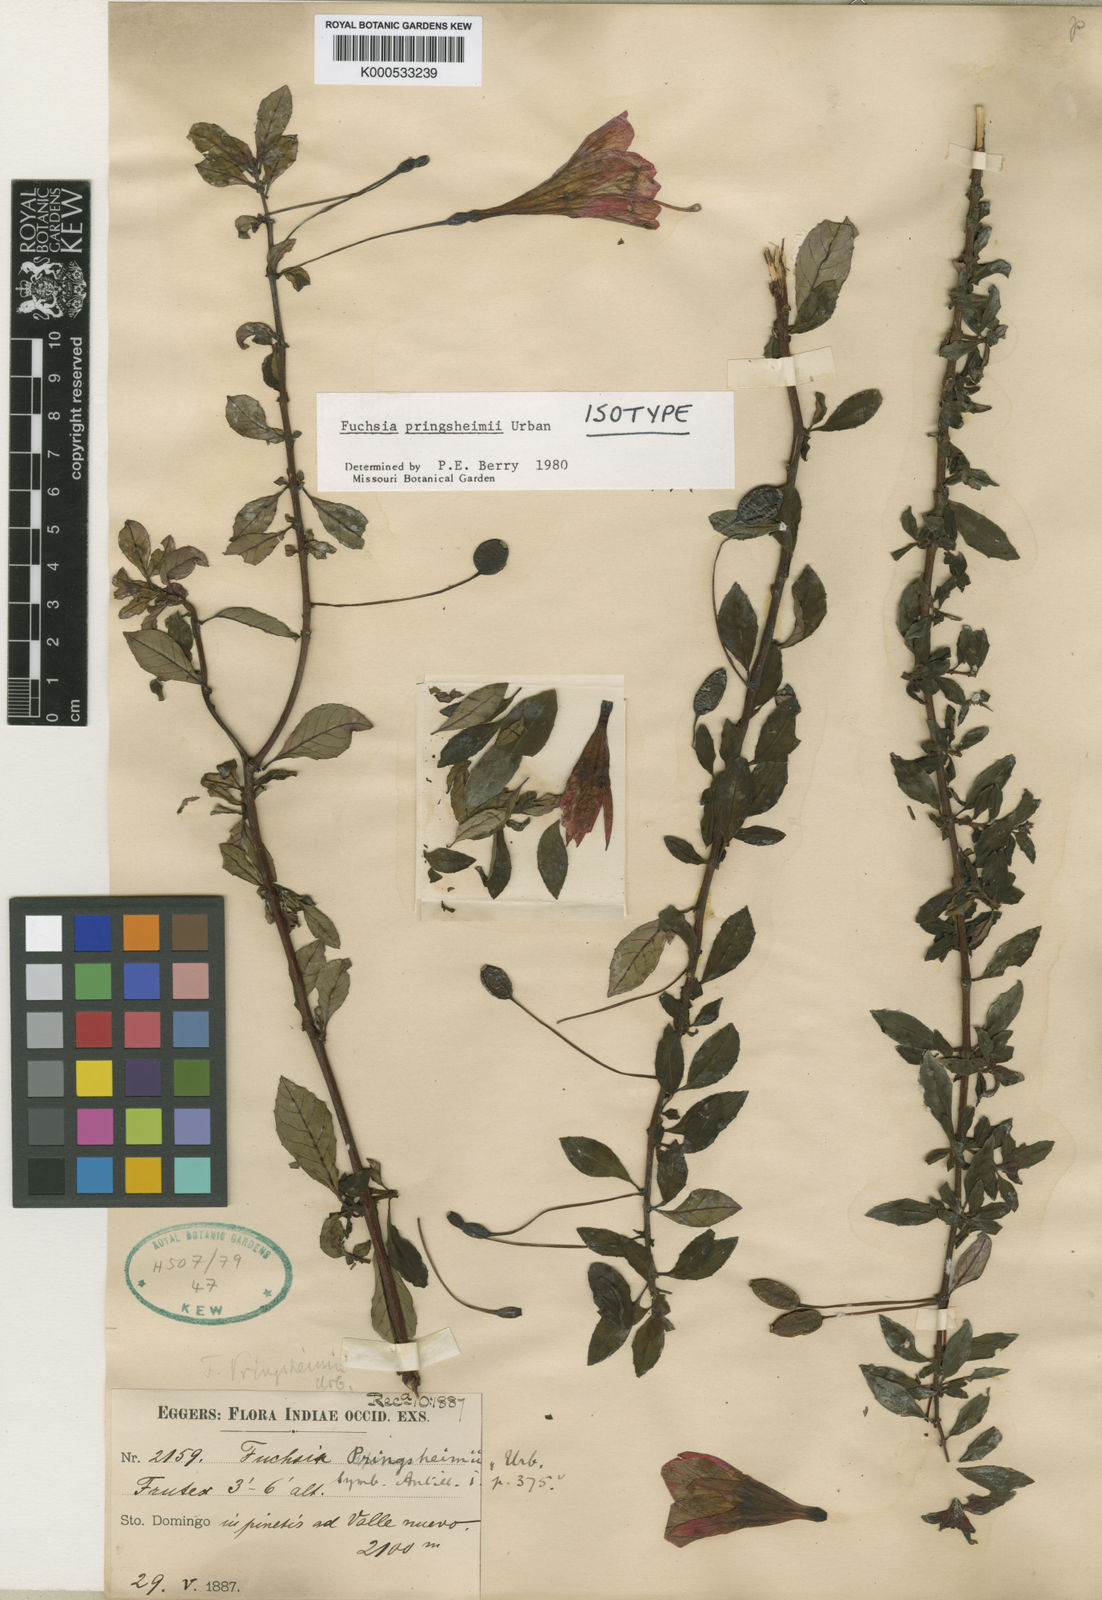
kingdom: Plantae
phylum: Tracheophyta
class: Magnoliopsida
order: Myrtales
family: Onagraceae
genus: Fuchsia
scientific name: Fuchsia pringsheimii
